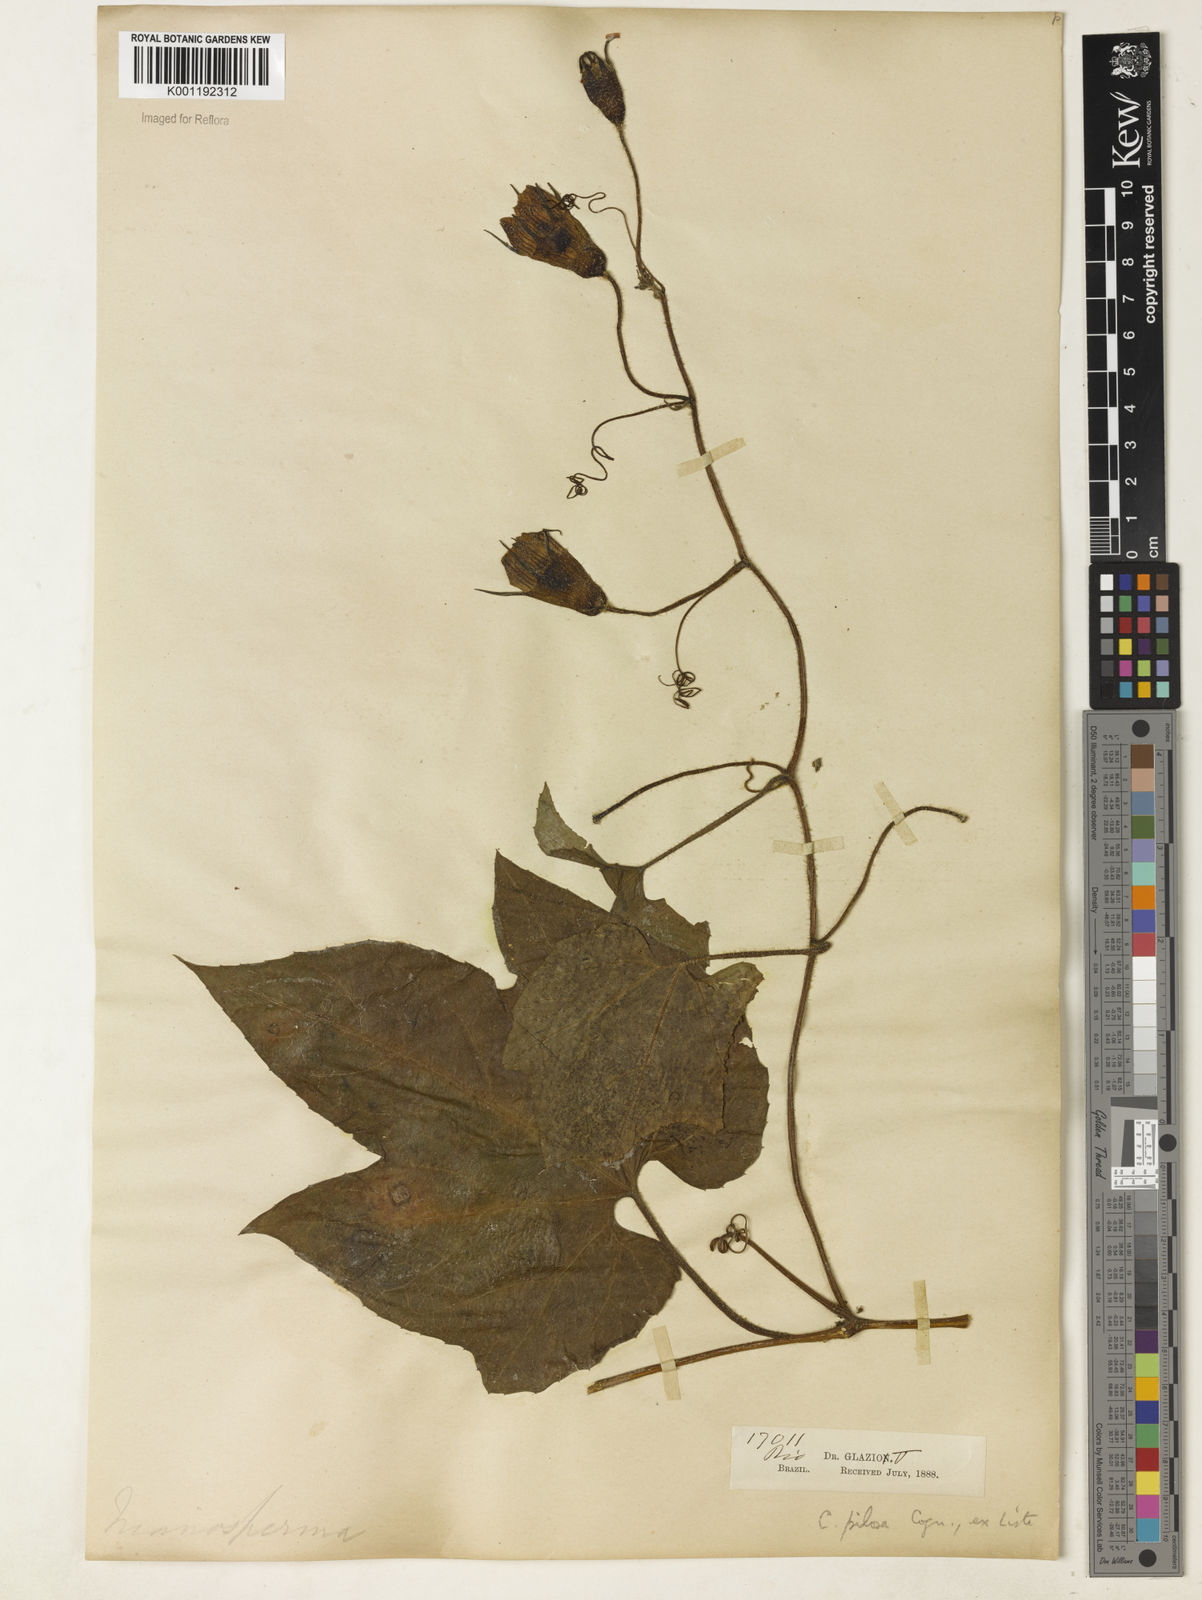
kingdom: Plantae
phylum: Tracheophyta
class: Magnoliopsida
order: Cucurbitales
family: Cucurbitaceae
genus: Cayaponia
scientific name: Cayaponia pilosa
